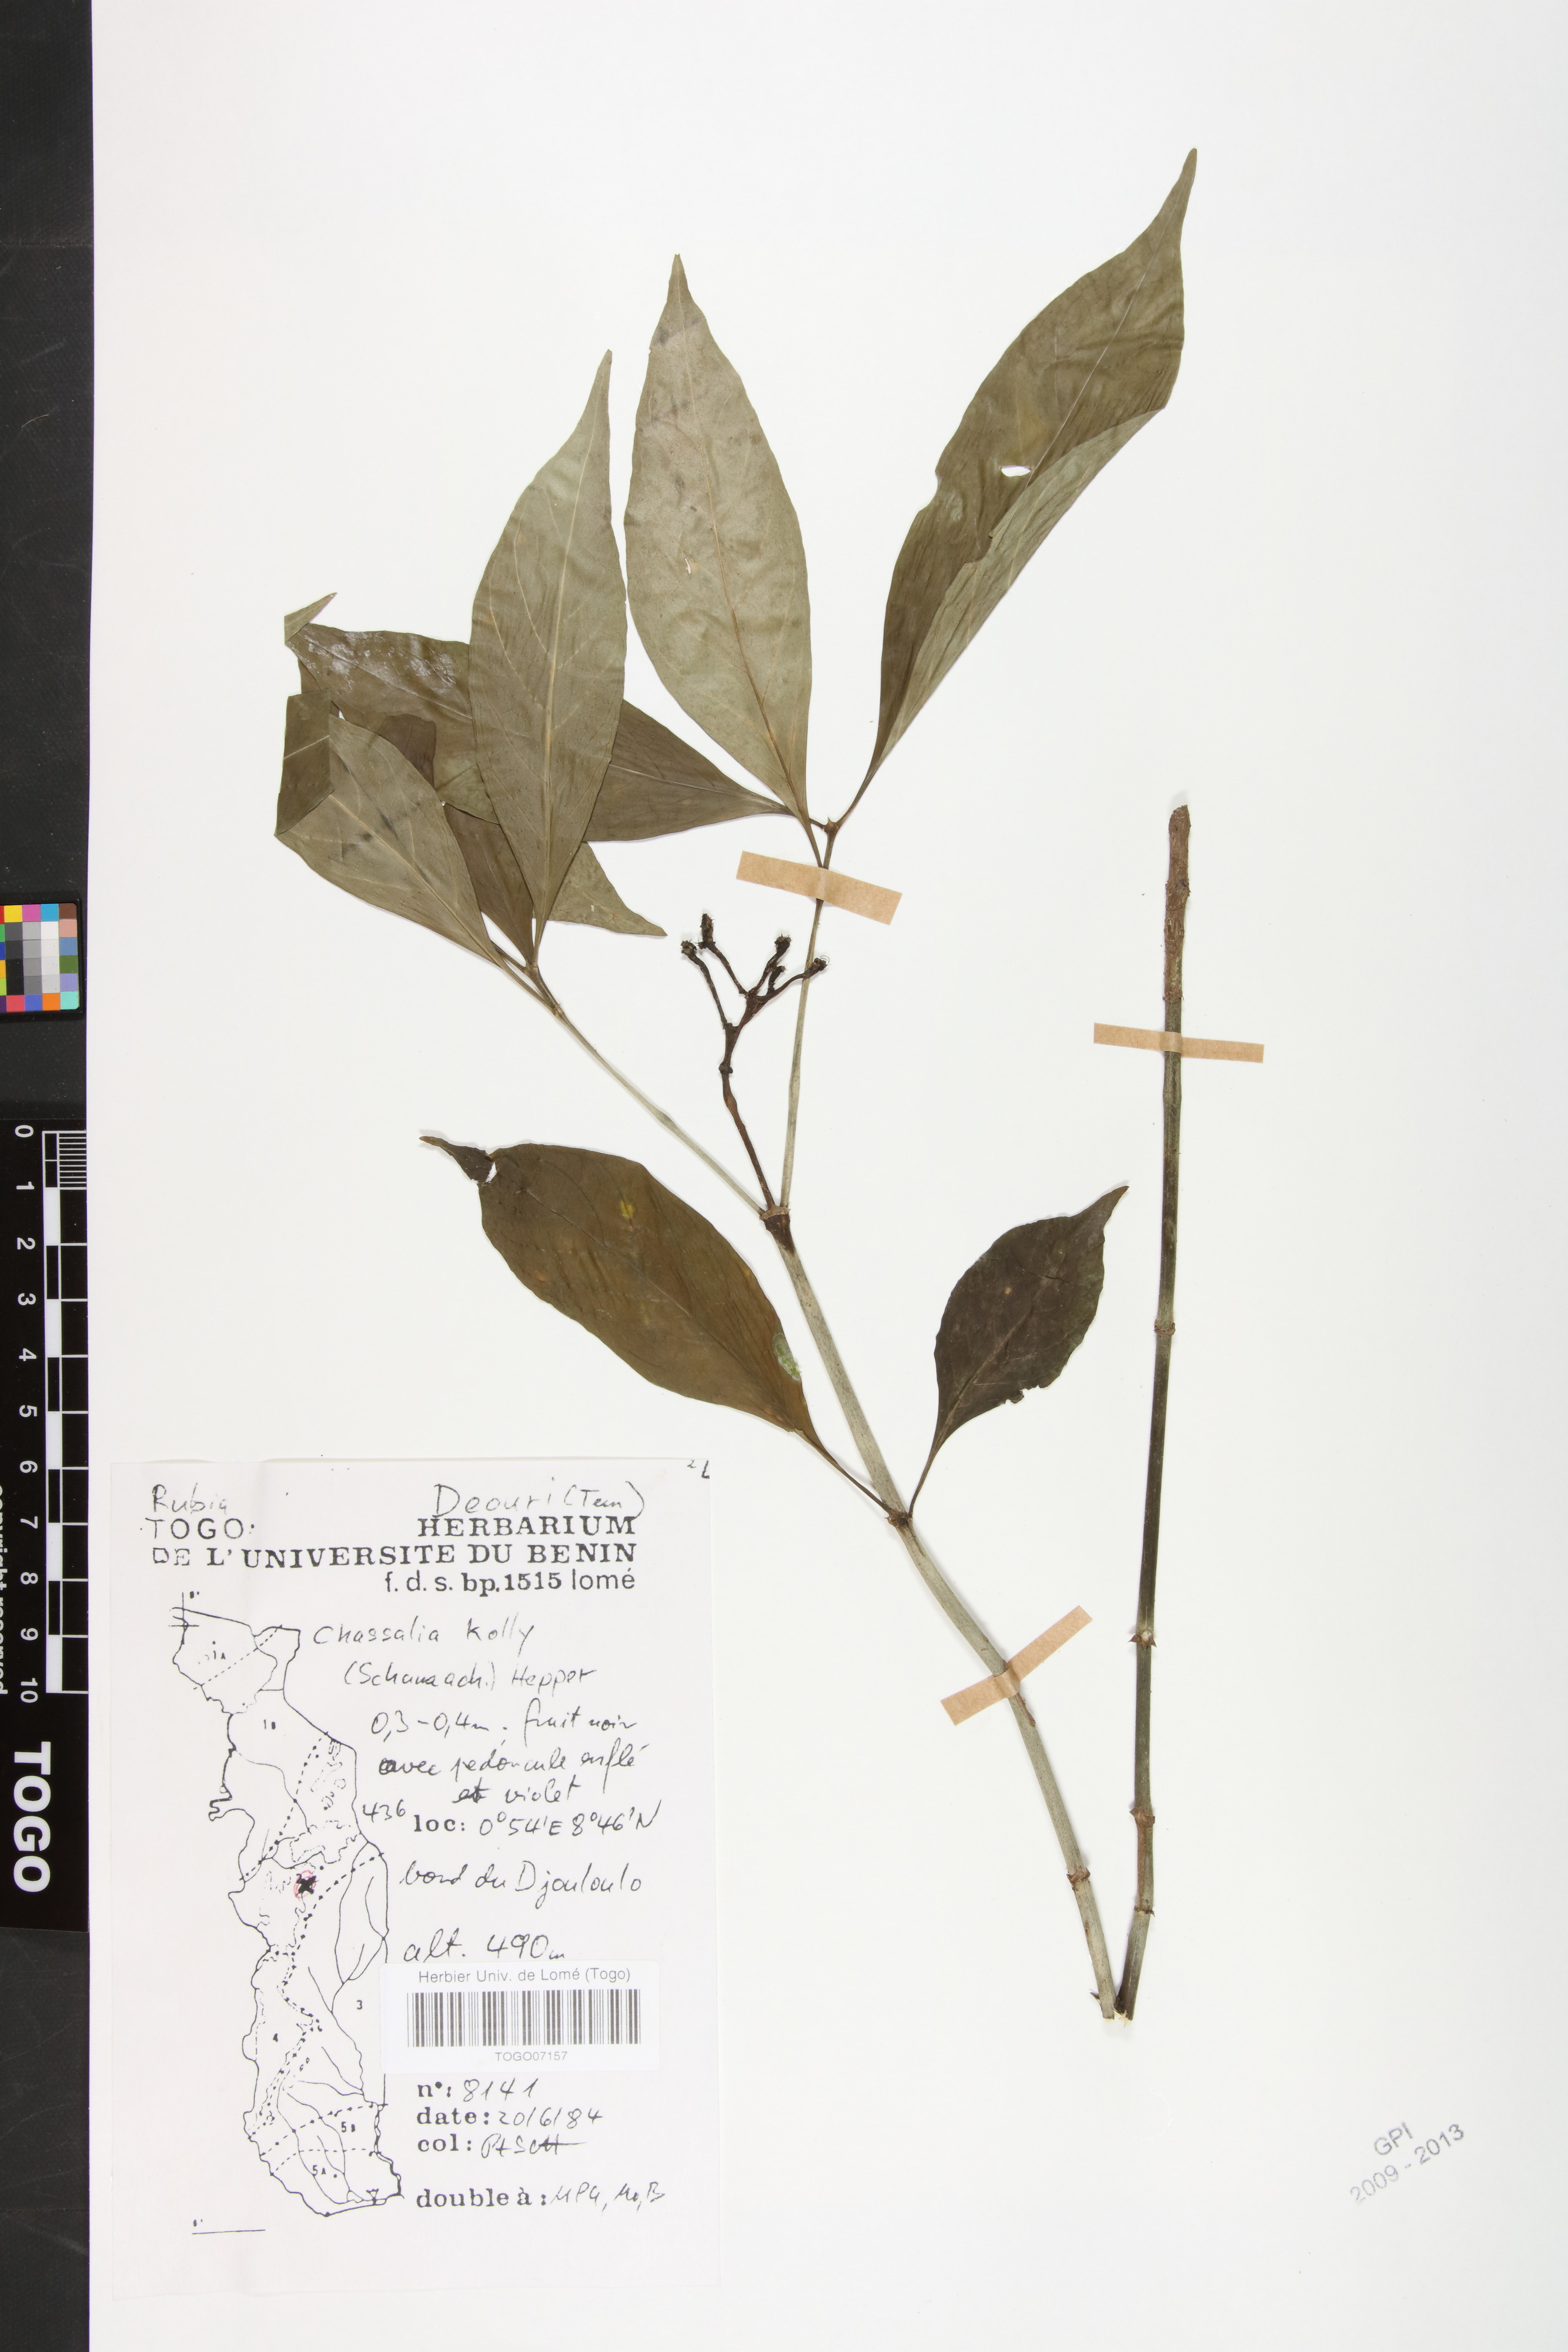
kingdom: Plantae
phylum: Tracheophyta
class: Magnoliopsida
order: Gentianales
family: Rubiaceae
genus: Chassalia
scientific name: Chassalia kolly
